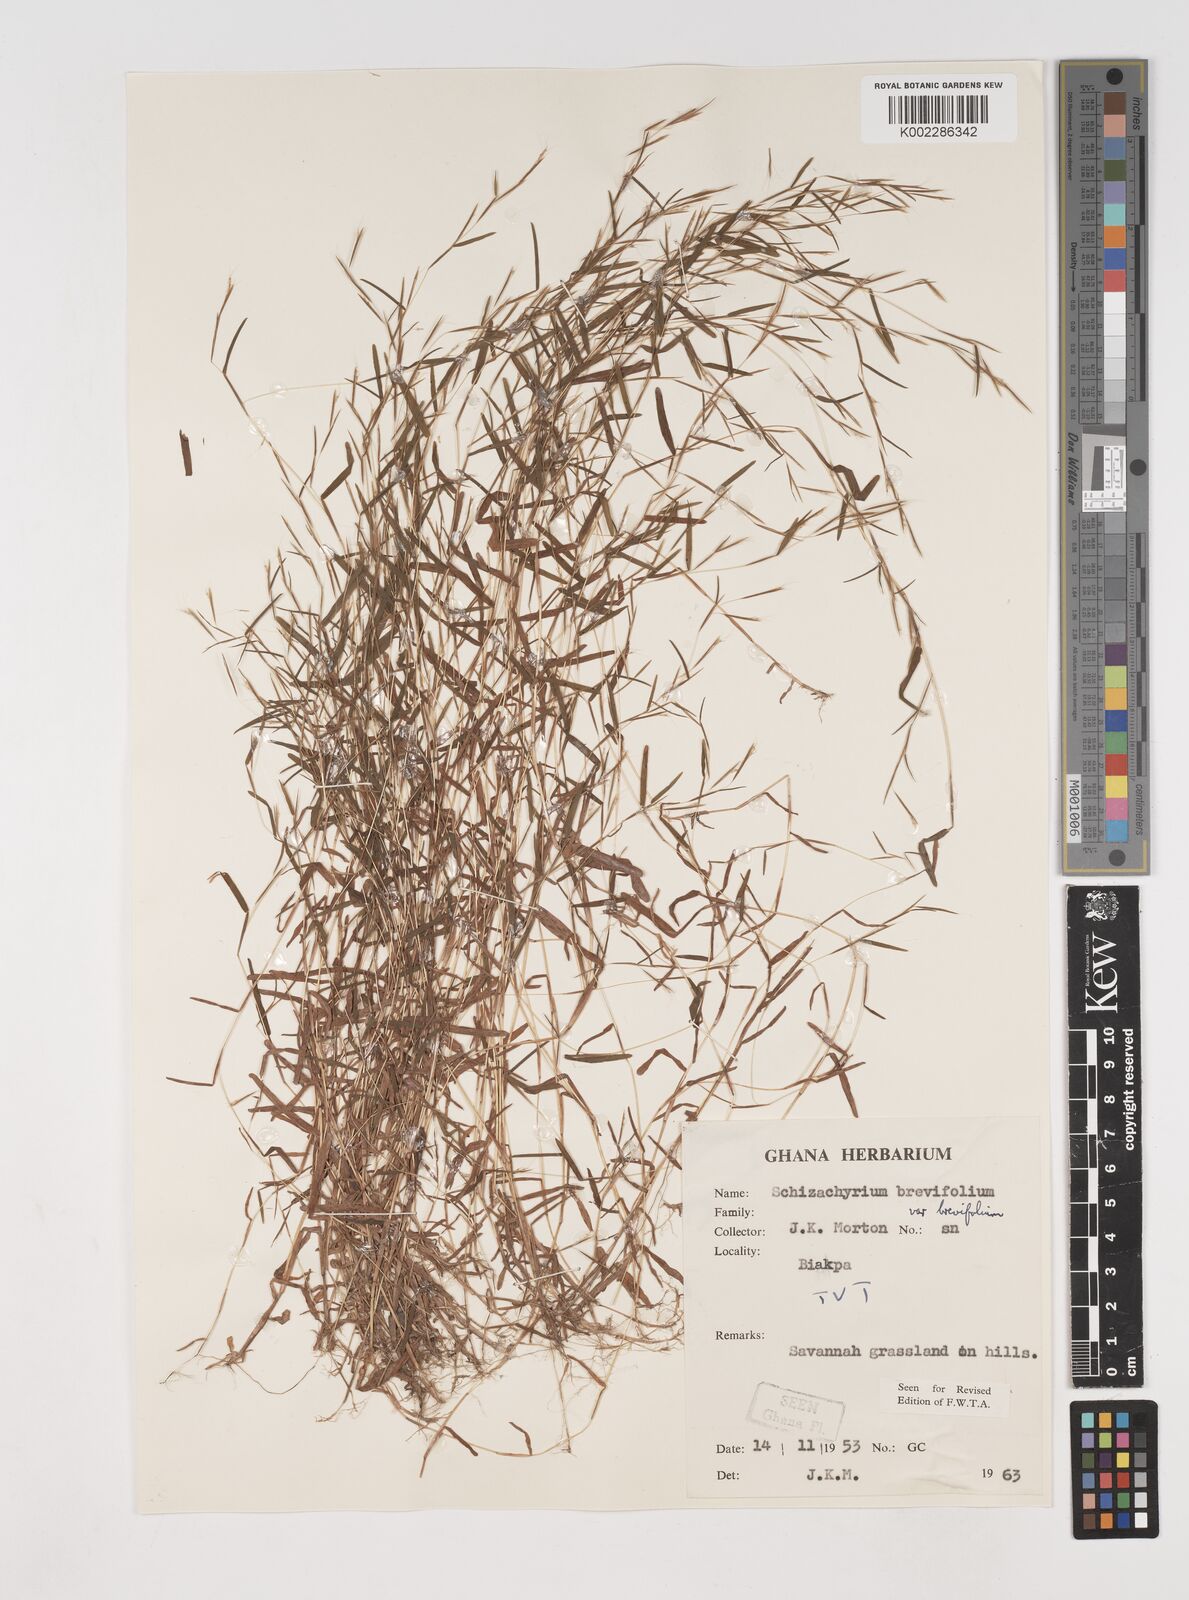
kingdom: Plantae
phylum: Tracheophyta
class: Liliopsida
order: Poales
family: Poaceae
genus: Schizachyrium
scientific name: Schizachyrium brevifolium
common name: Serillo dulce
